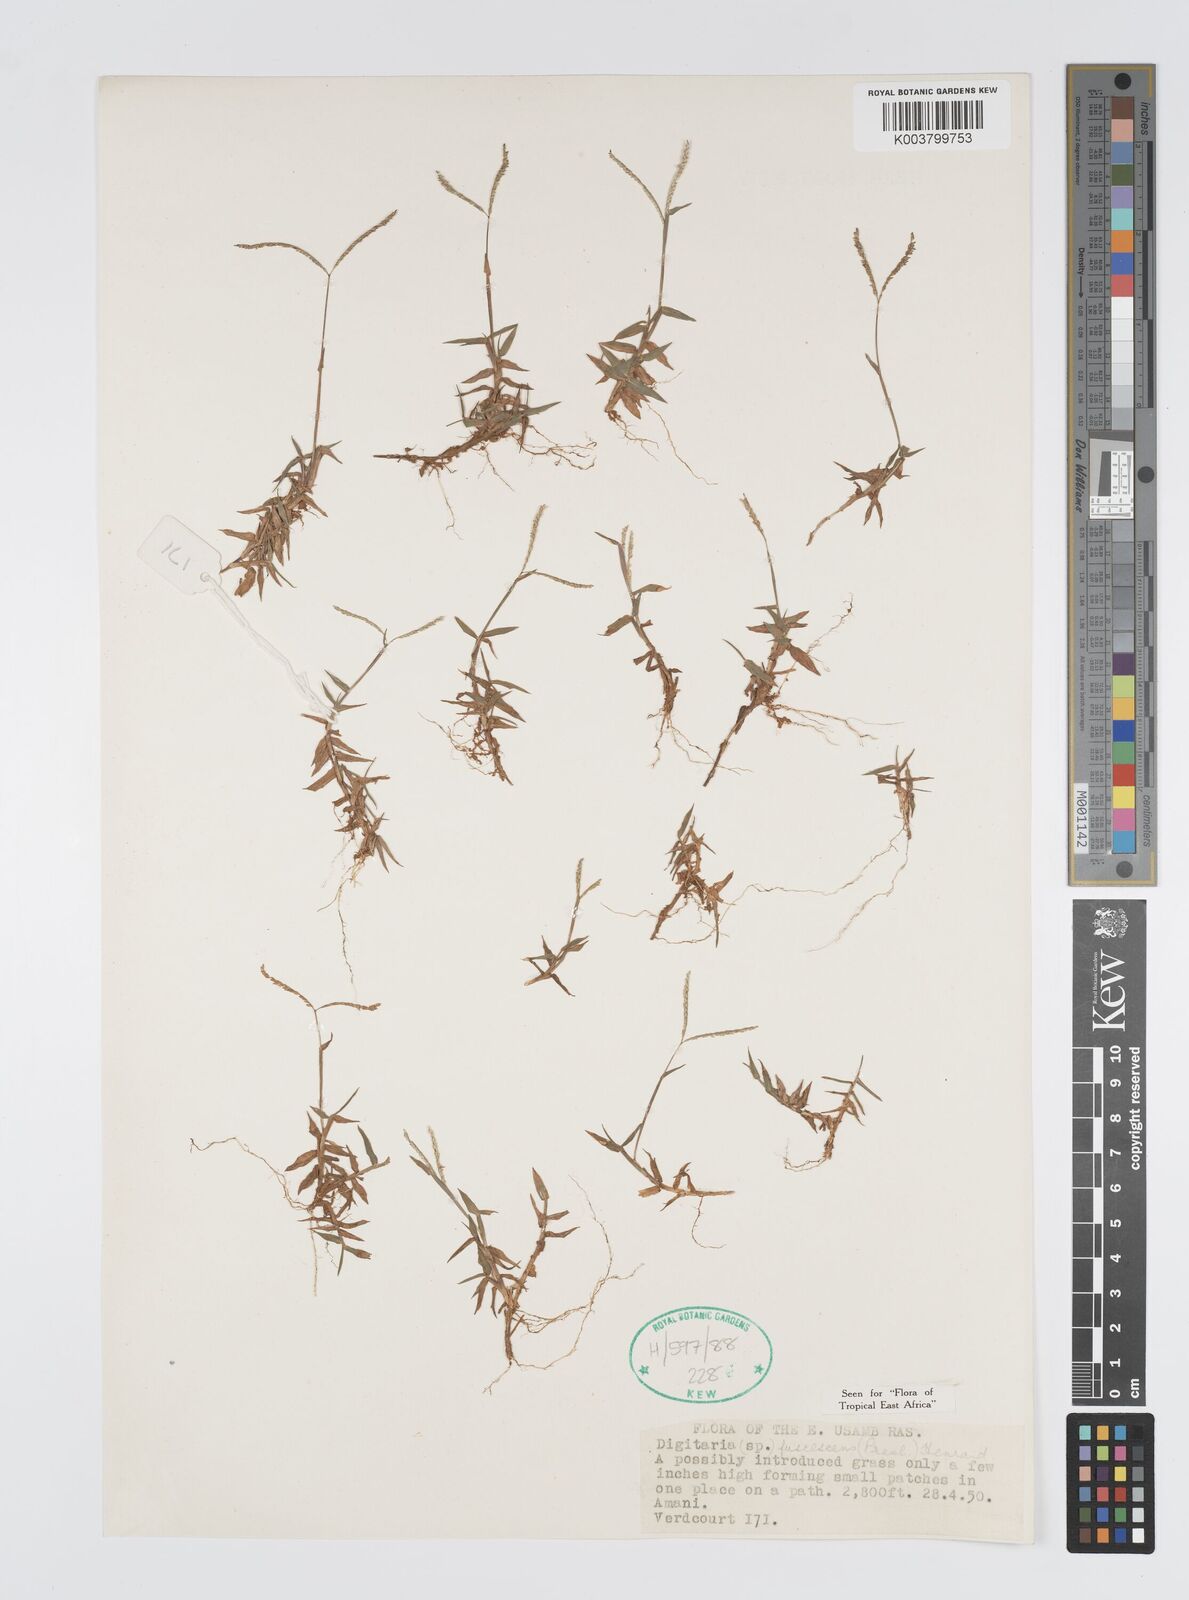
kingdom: Plantae
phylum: Tracheophyta
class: Liliopsida
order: Poales
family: Poaceae
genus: Digitaria
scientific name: Digitaria fuscescens
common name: Yellow crabgrass
